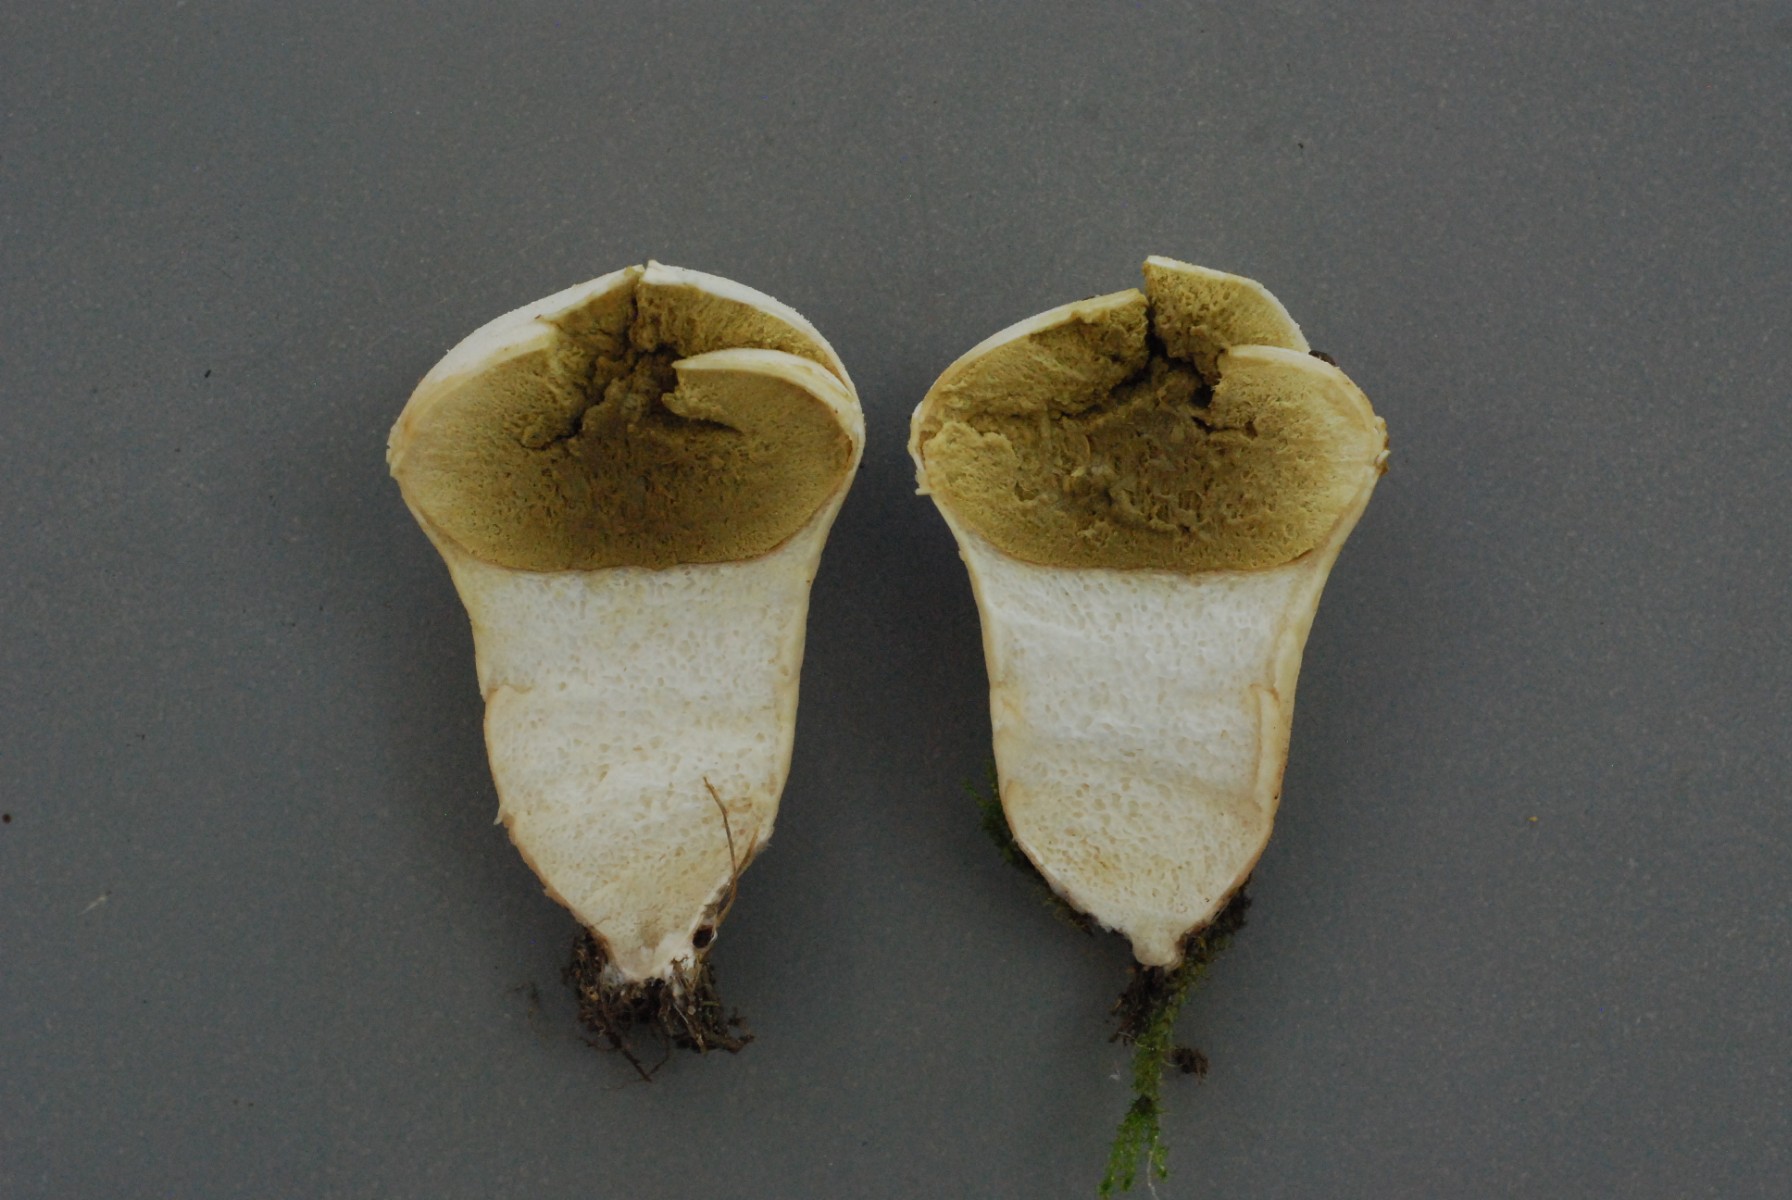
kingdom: Fungi
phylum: Basidiomycota
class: Agaricomycetes
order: Agaricales
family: Lycoperdaceae
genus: Lycoperdon
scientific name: Lycoperdon pratense
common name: flad støvbold
